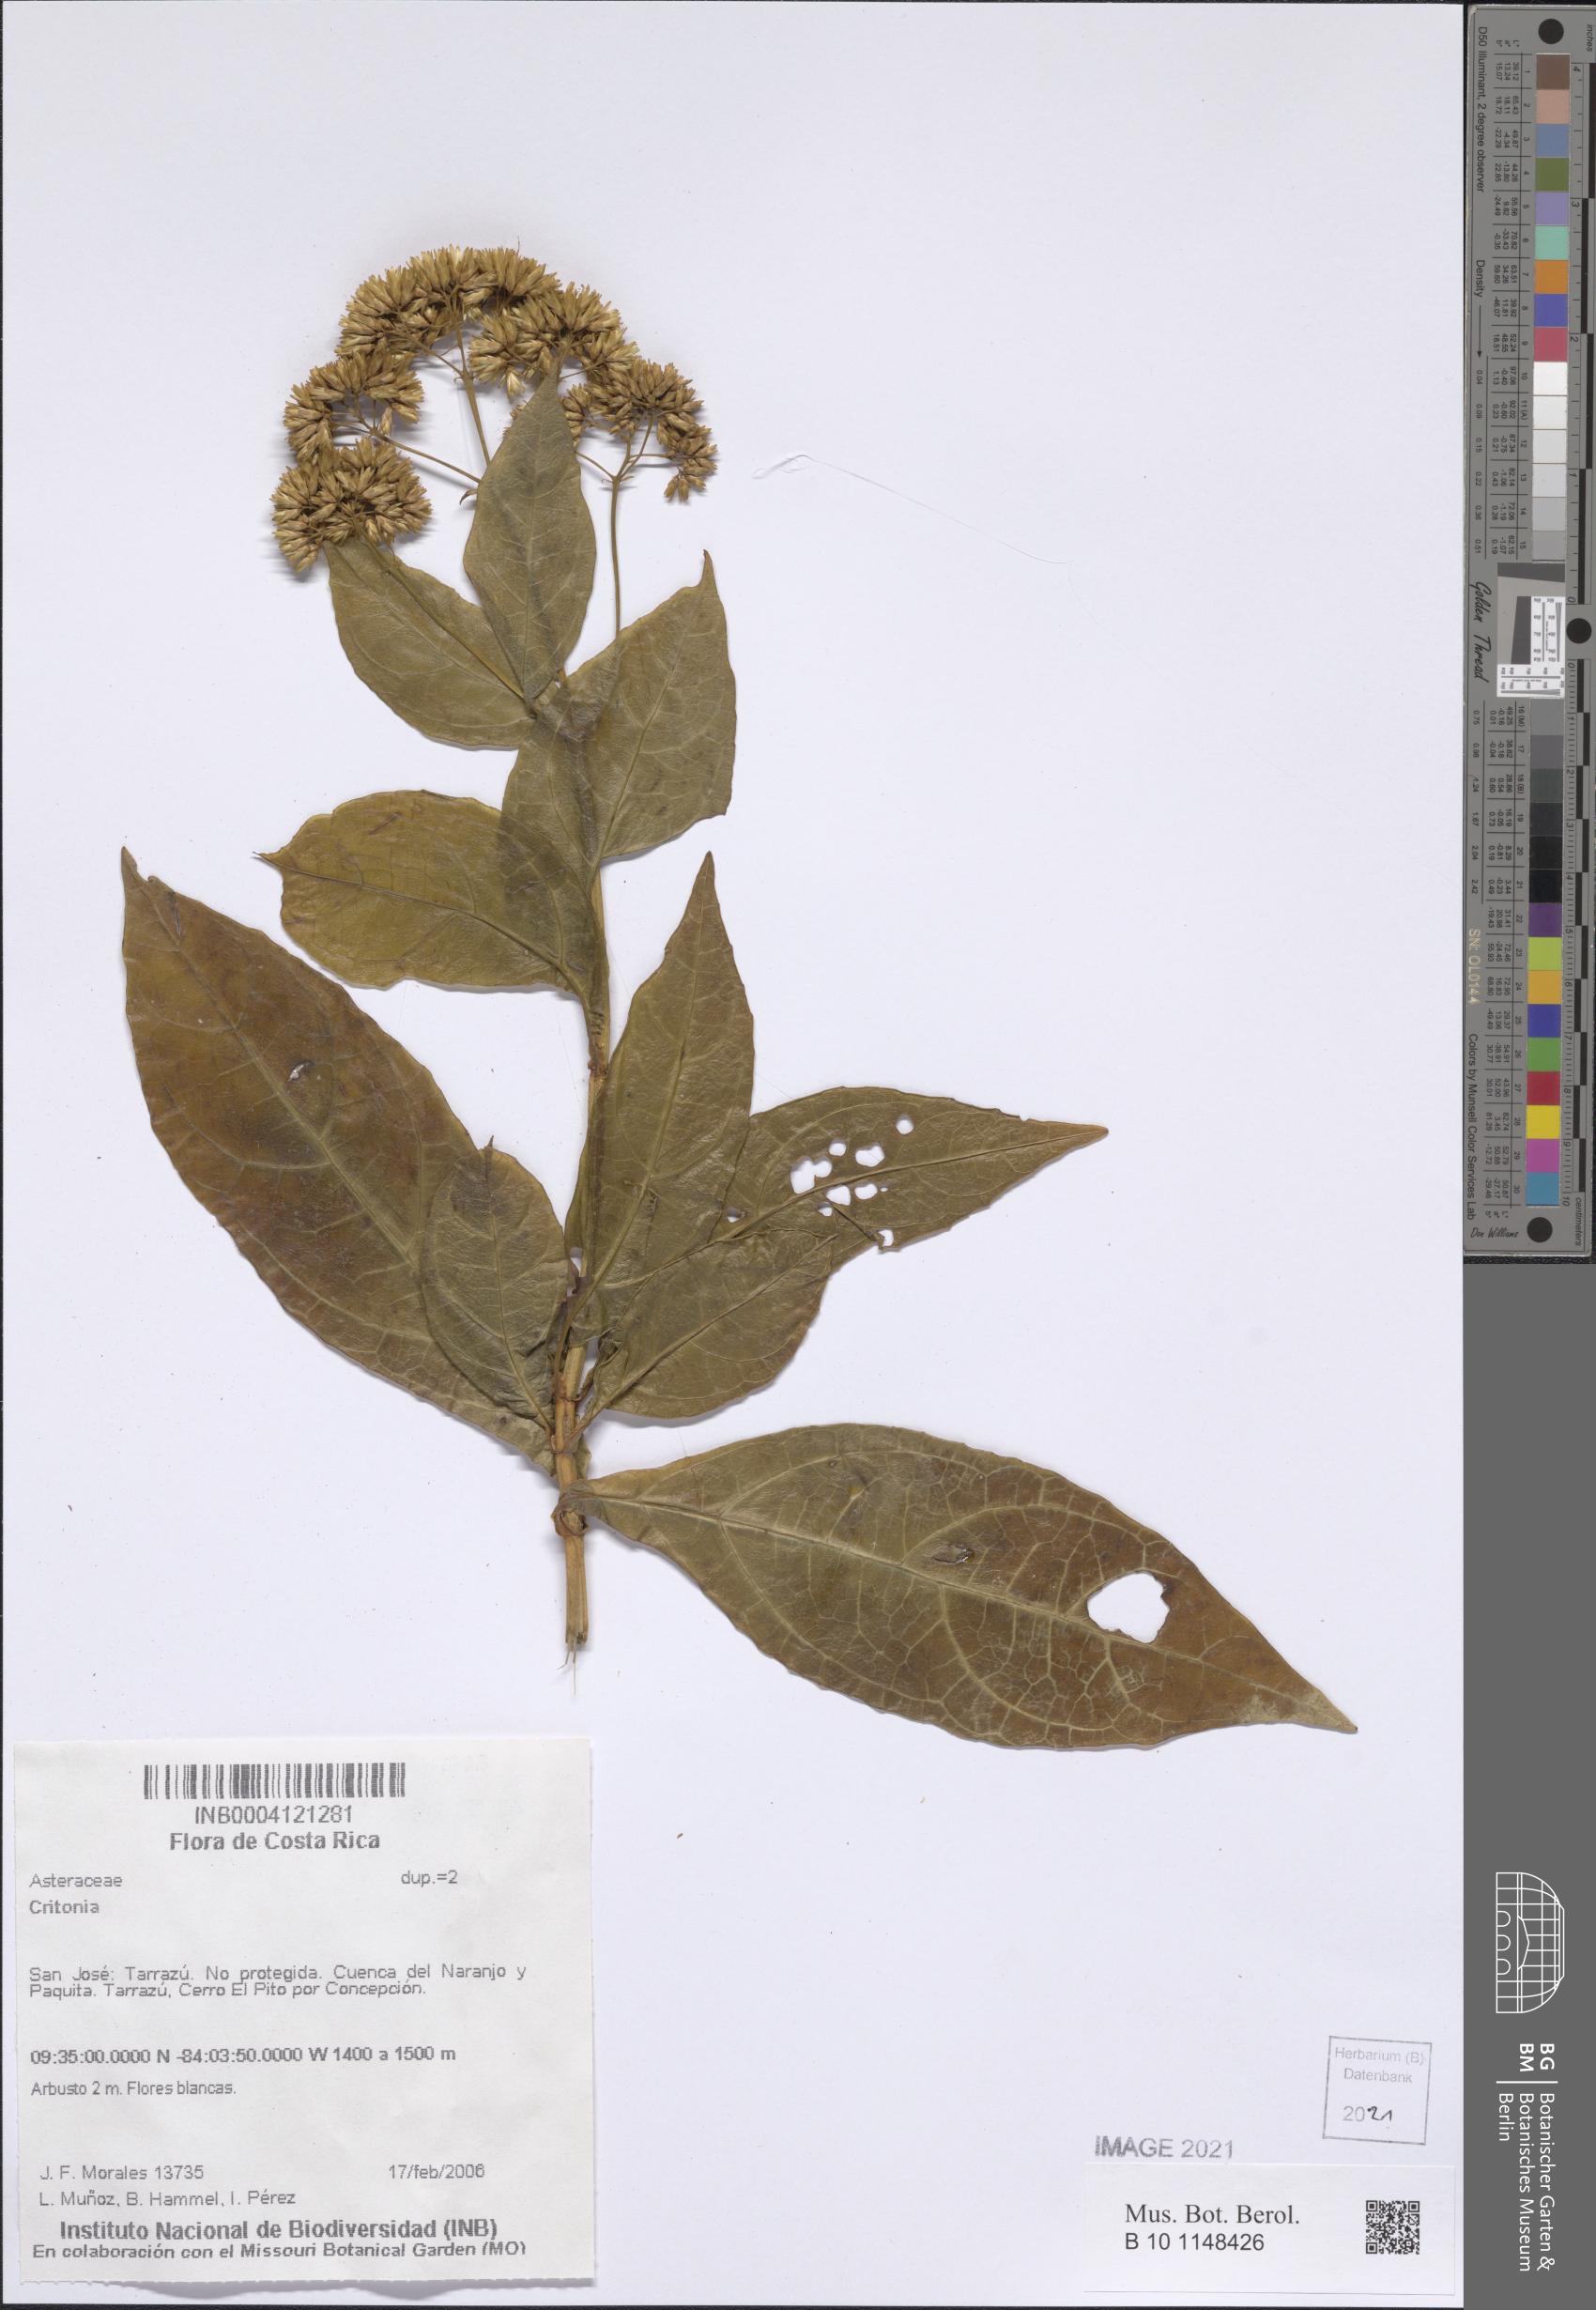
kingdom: Plantae
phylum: Tracheophyta
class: Magnoliopsida
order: Asterales
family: Asteraceae
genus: Critonia
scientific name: Critonia
